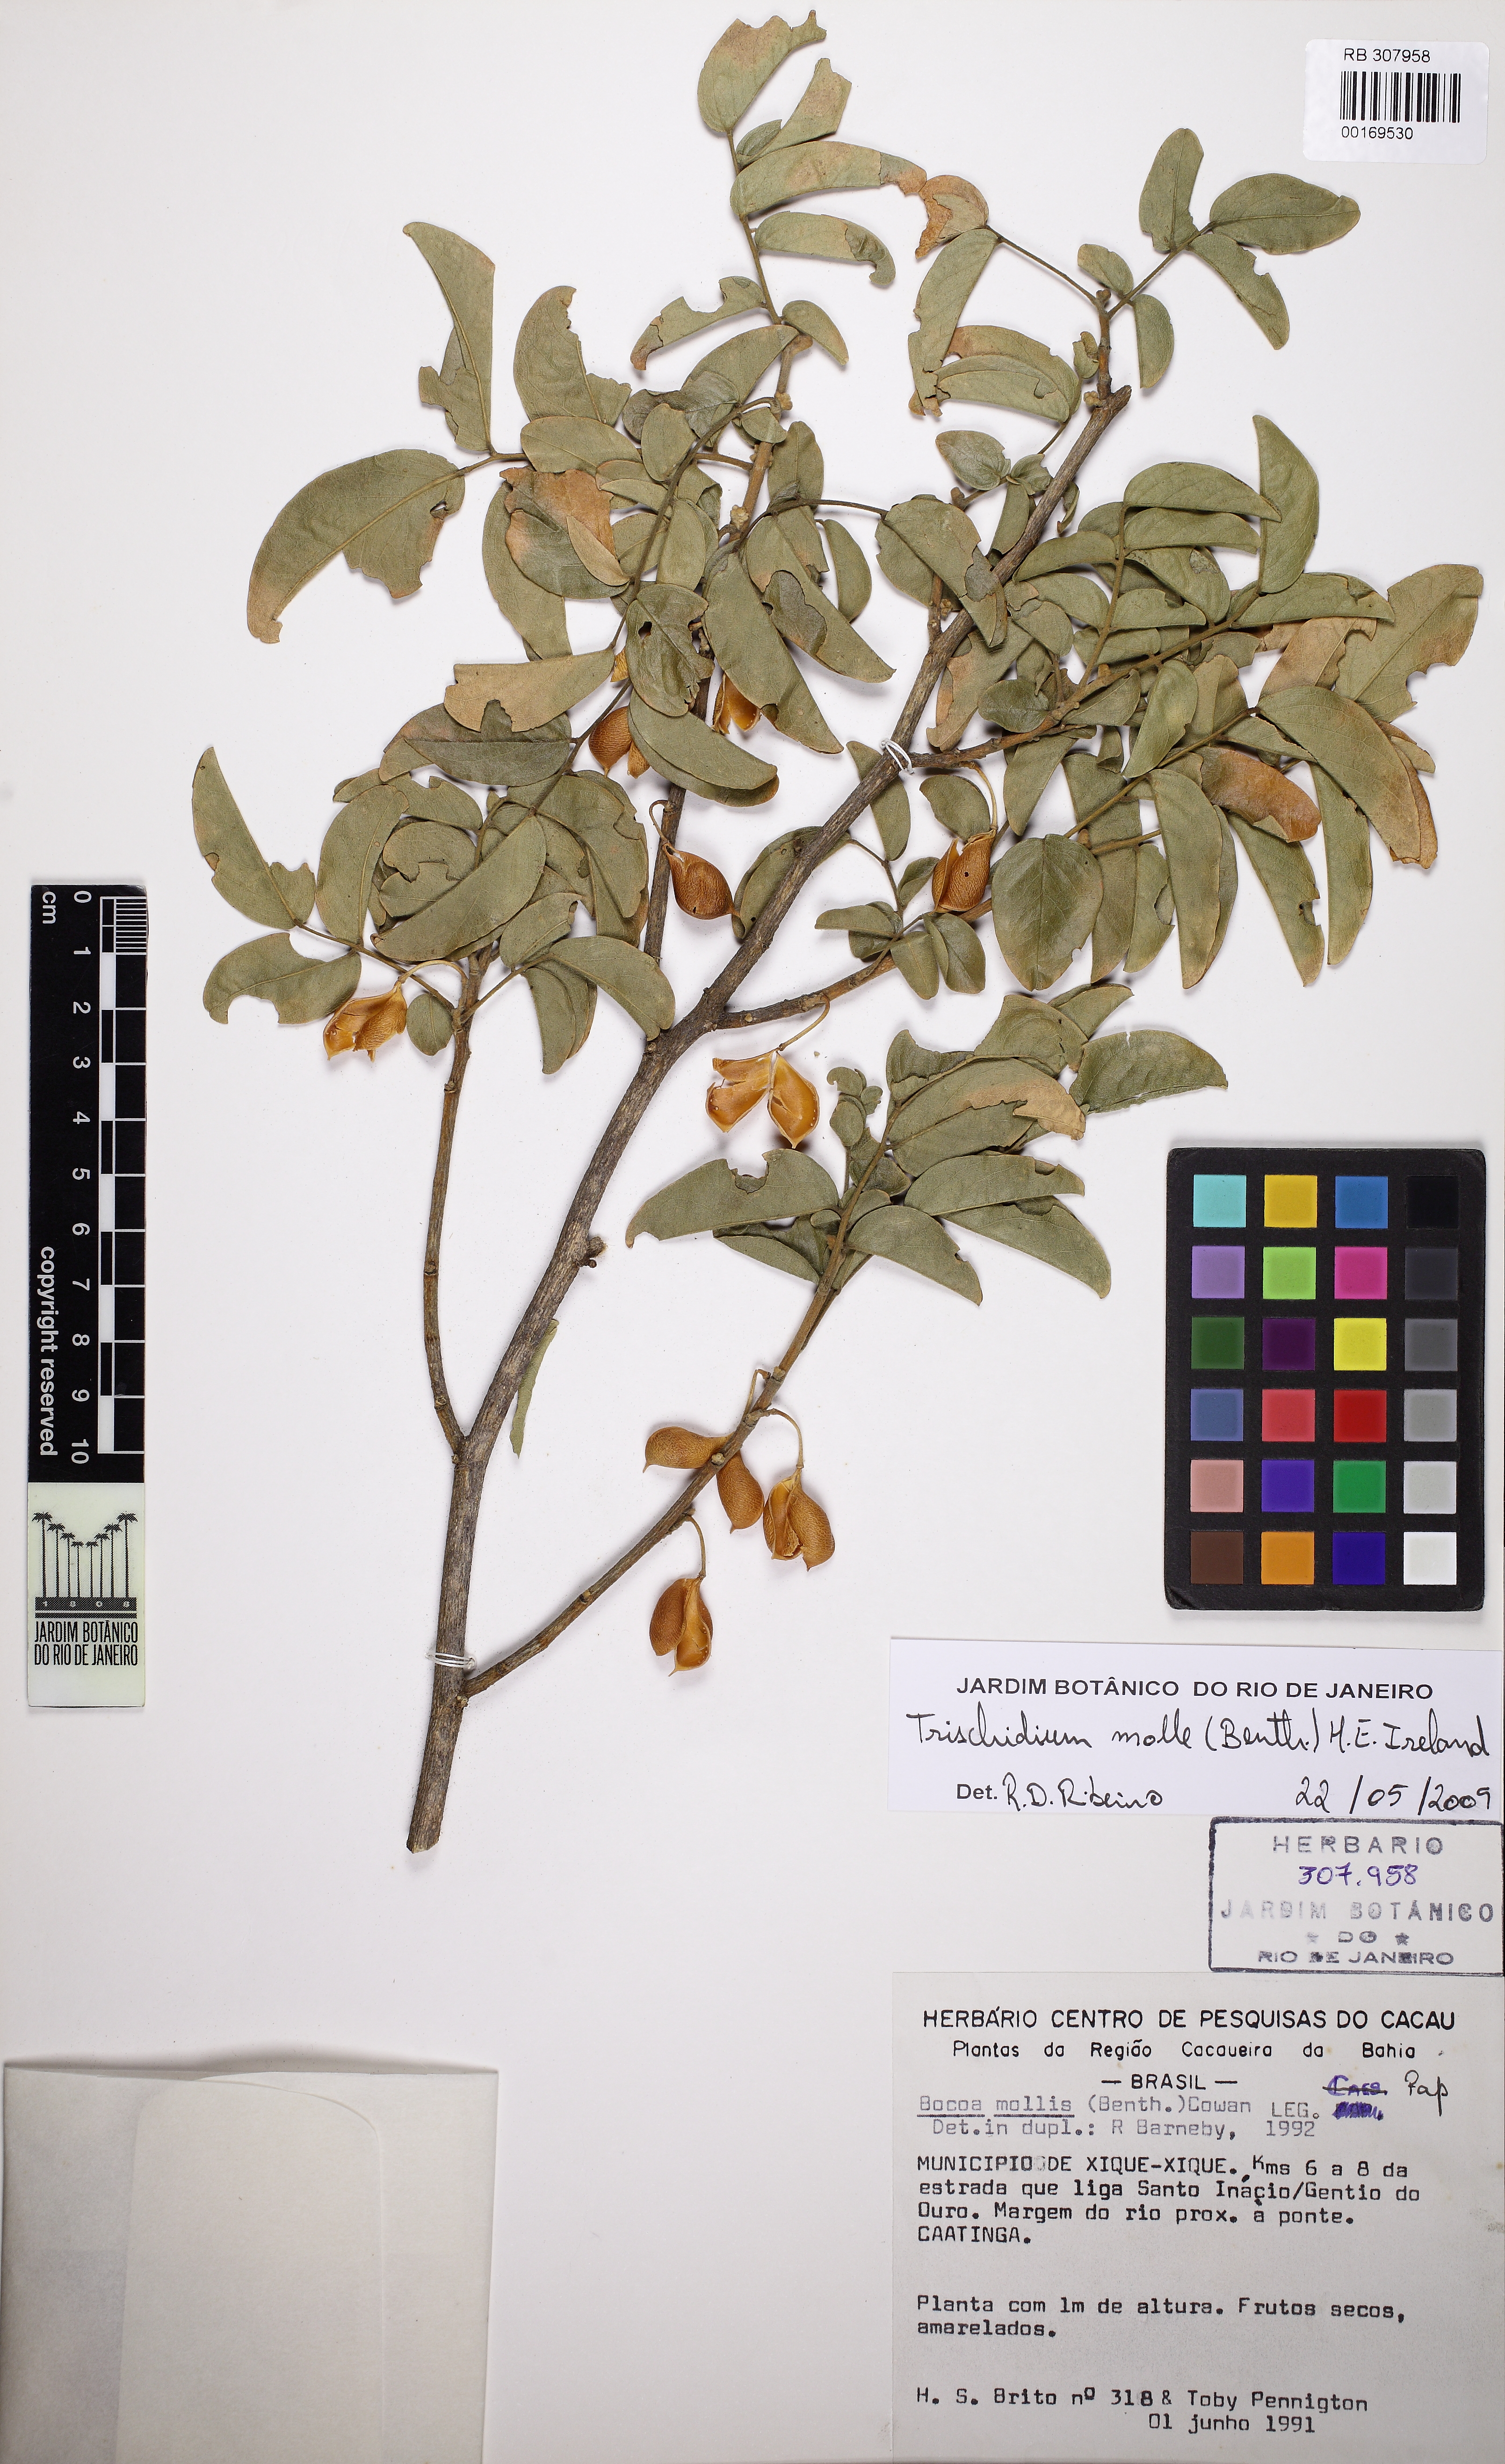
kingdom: Plantae
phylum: Tracheophyta
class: Magnoliopsida
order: Fabales
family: Fabaceae
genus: Trischidium
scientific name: Trischidium molle
